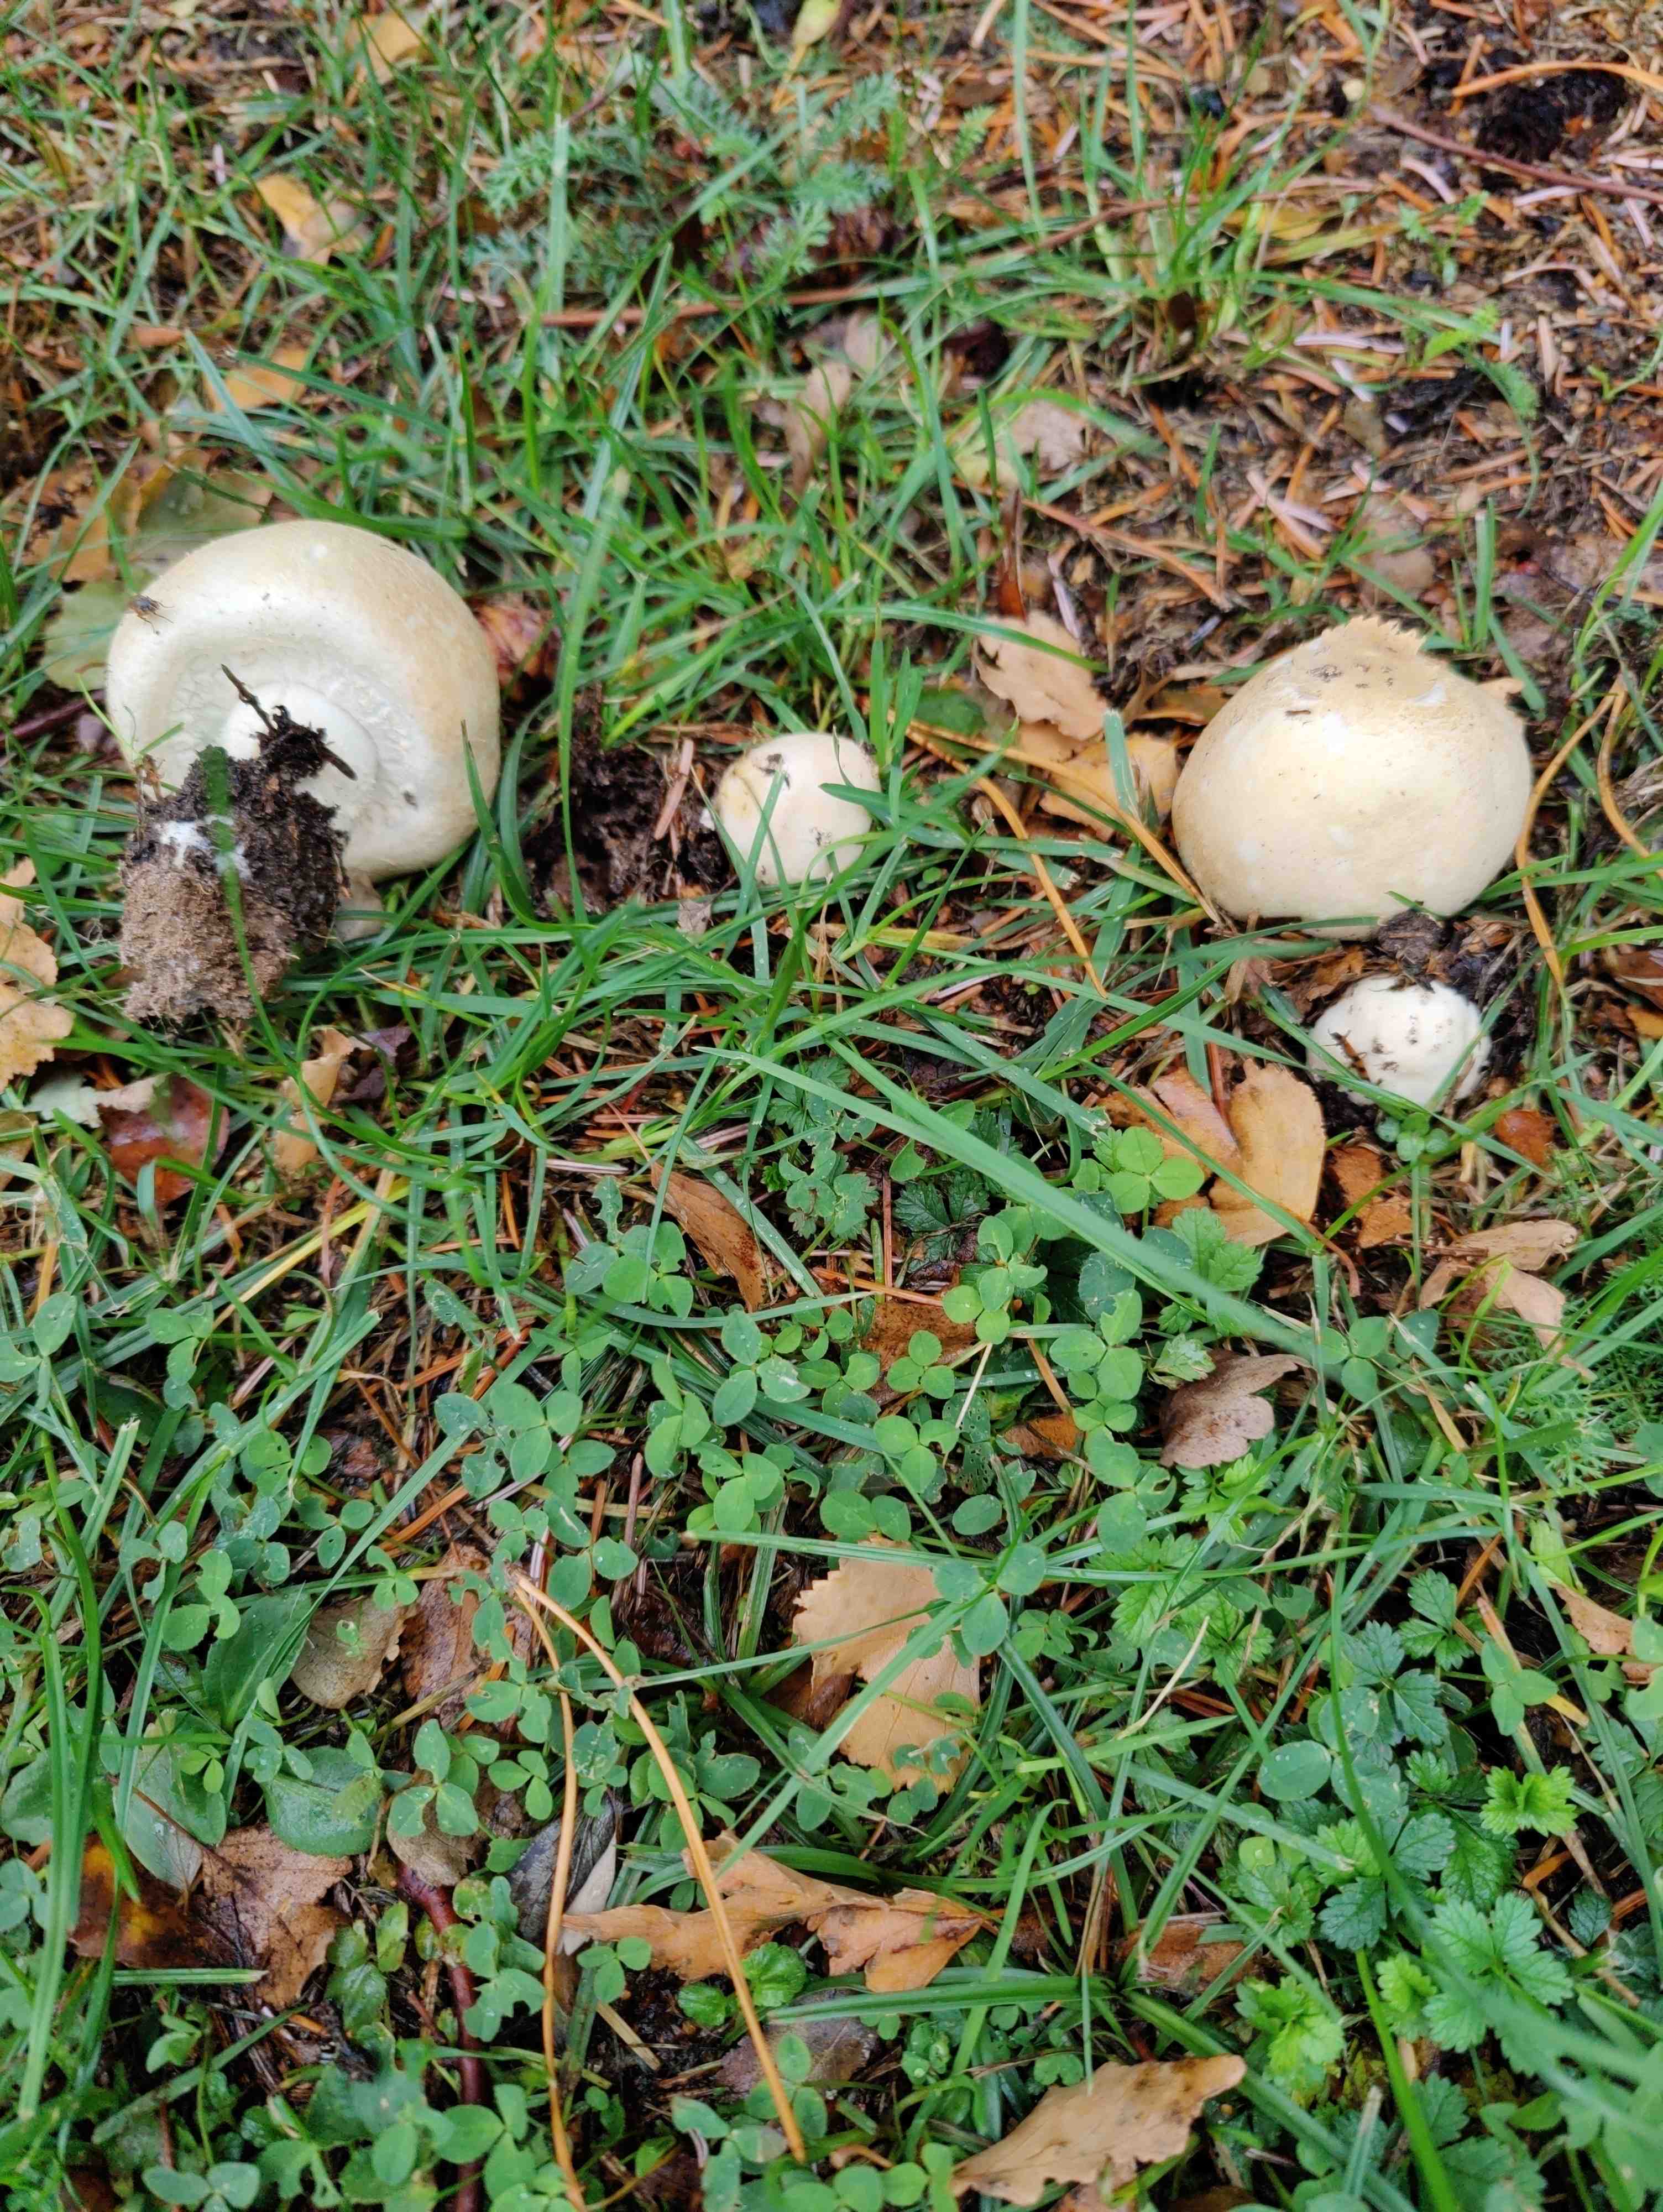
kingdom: Fungi
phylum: Basidiomycota
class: Agaricomycetes
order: Agaricales
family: Agaricaceae
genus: Agaricus
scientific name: Agaricus
